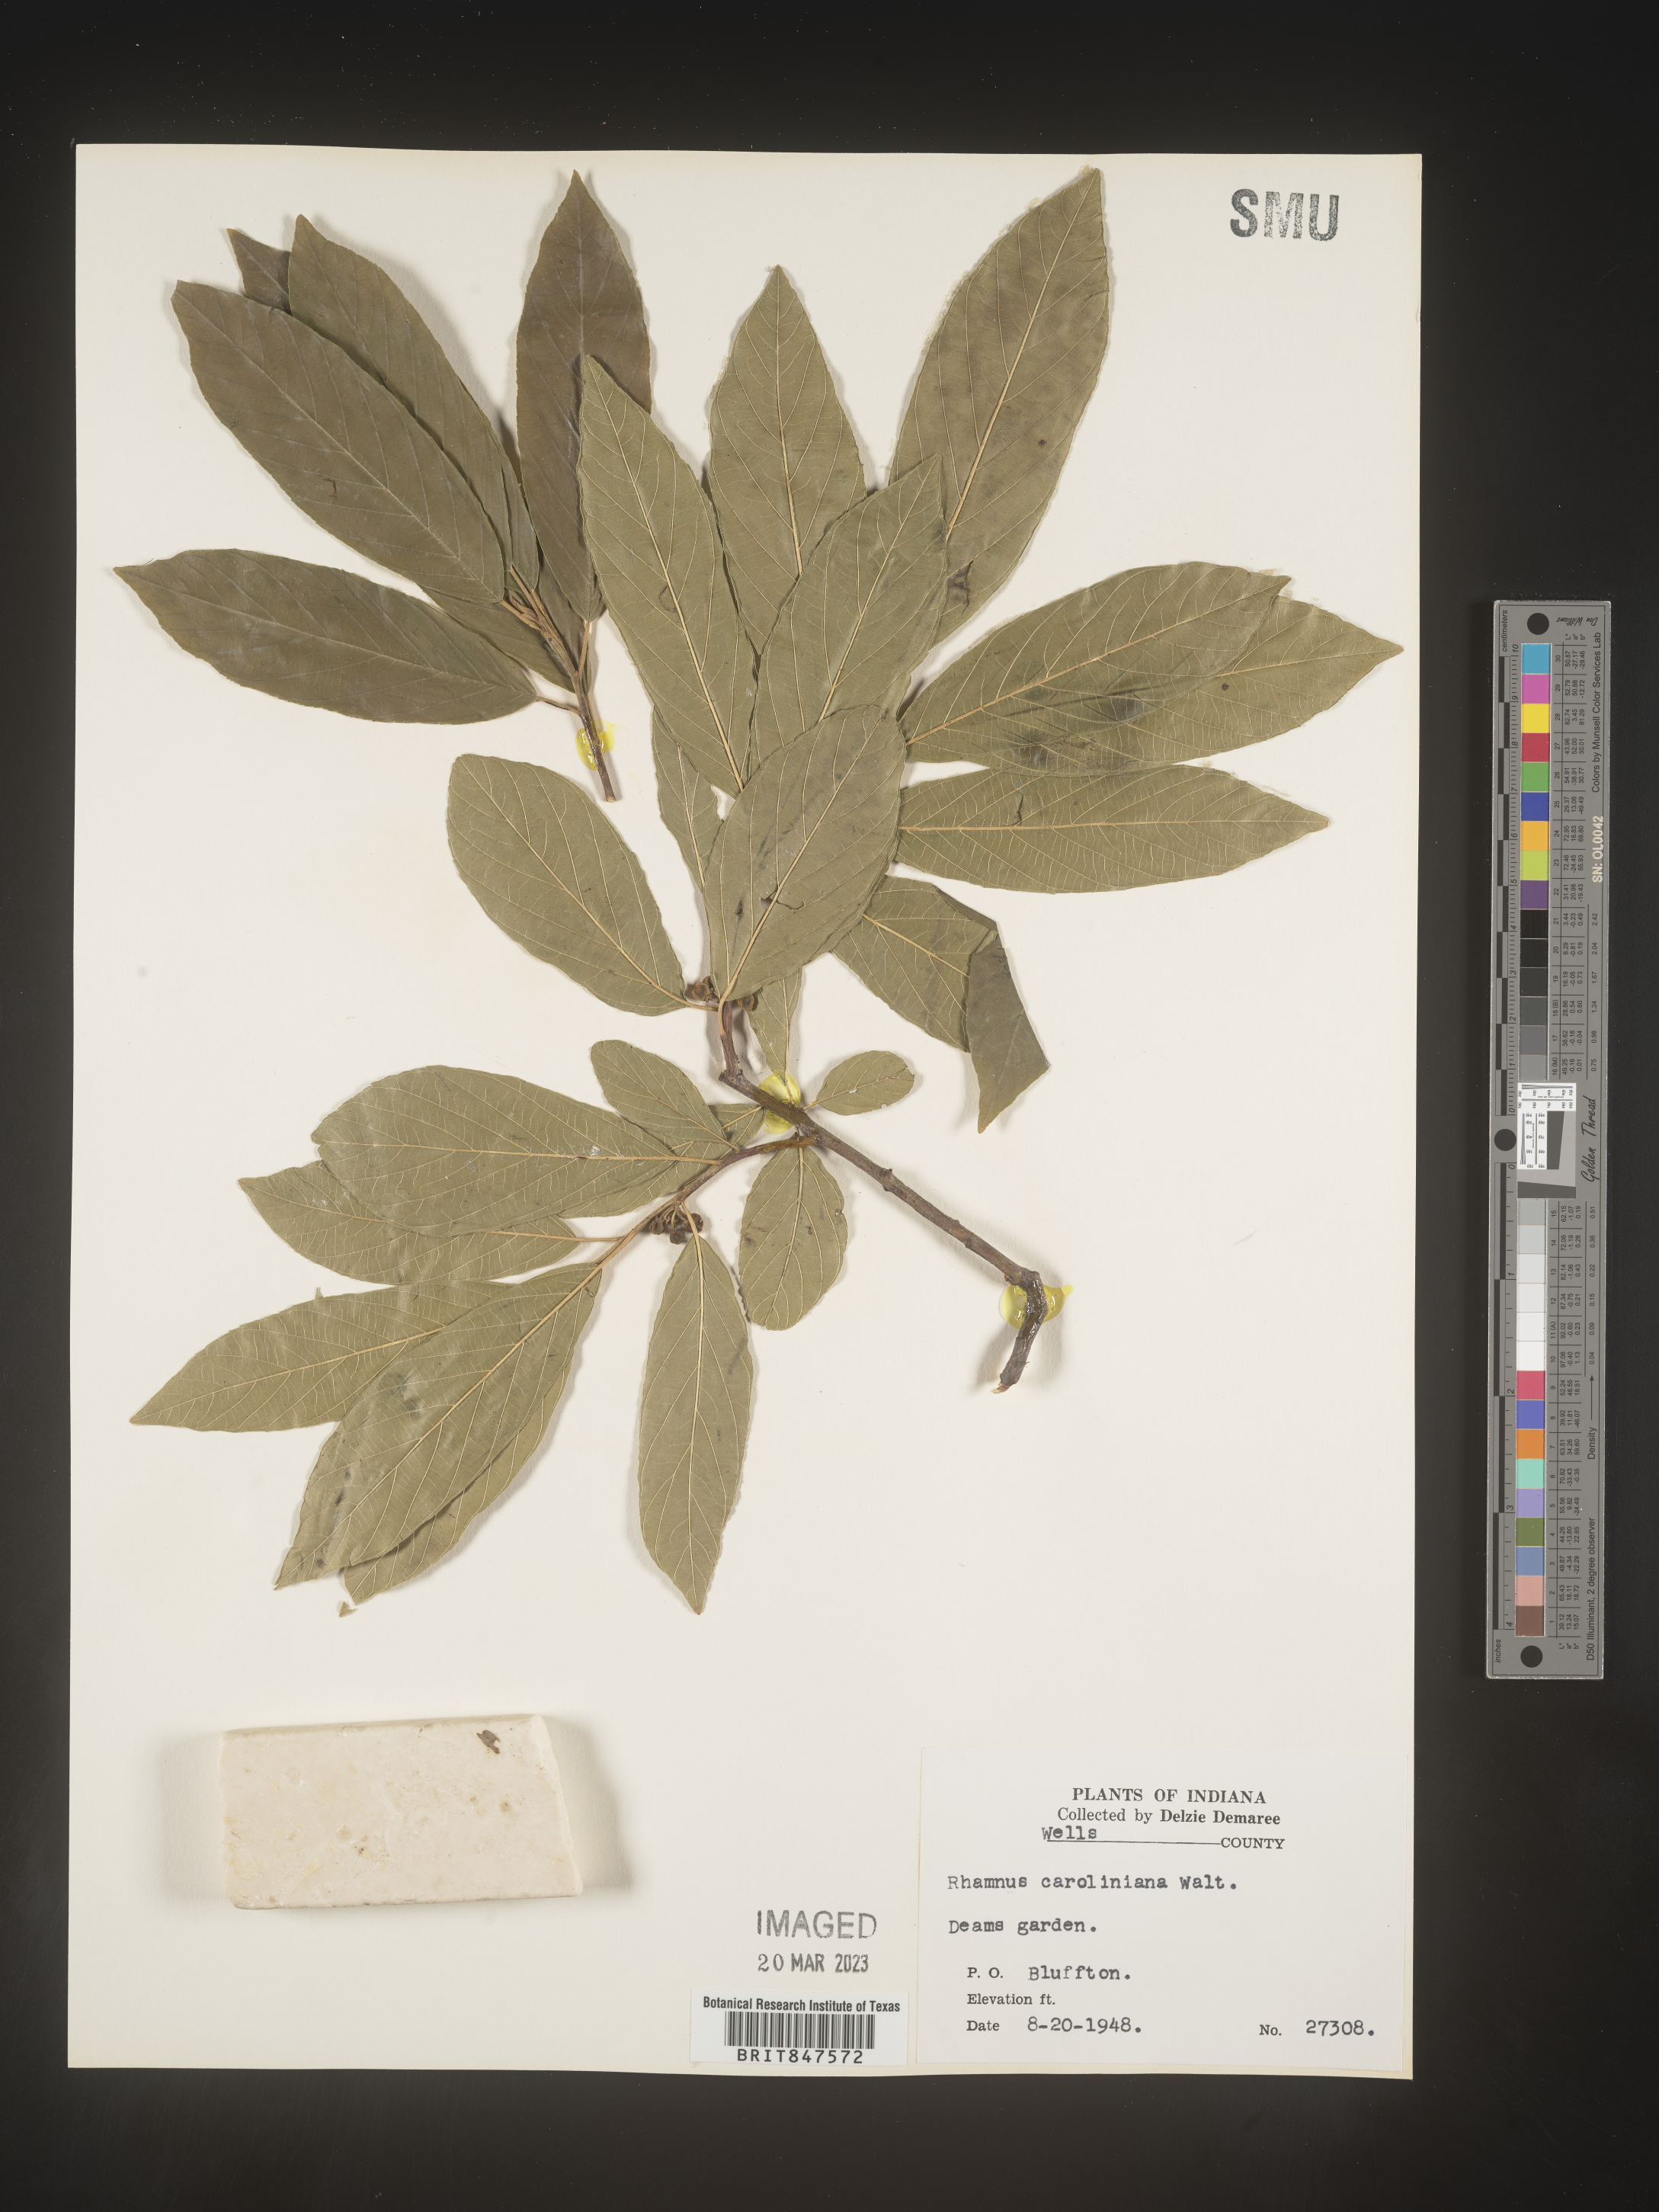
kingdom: Plantae
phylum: Tracheophyta
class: Magnoliopsida
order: Rosales
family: Rhamnaceae
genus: Frangula
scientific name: Frangula caroliniana
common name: Carolina buckthorn
